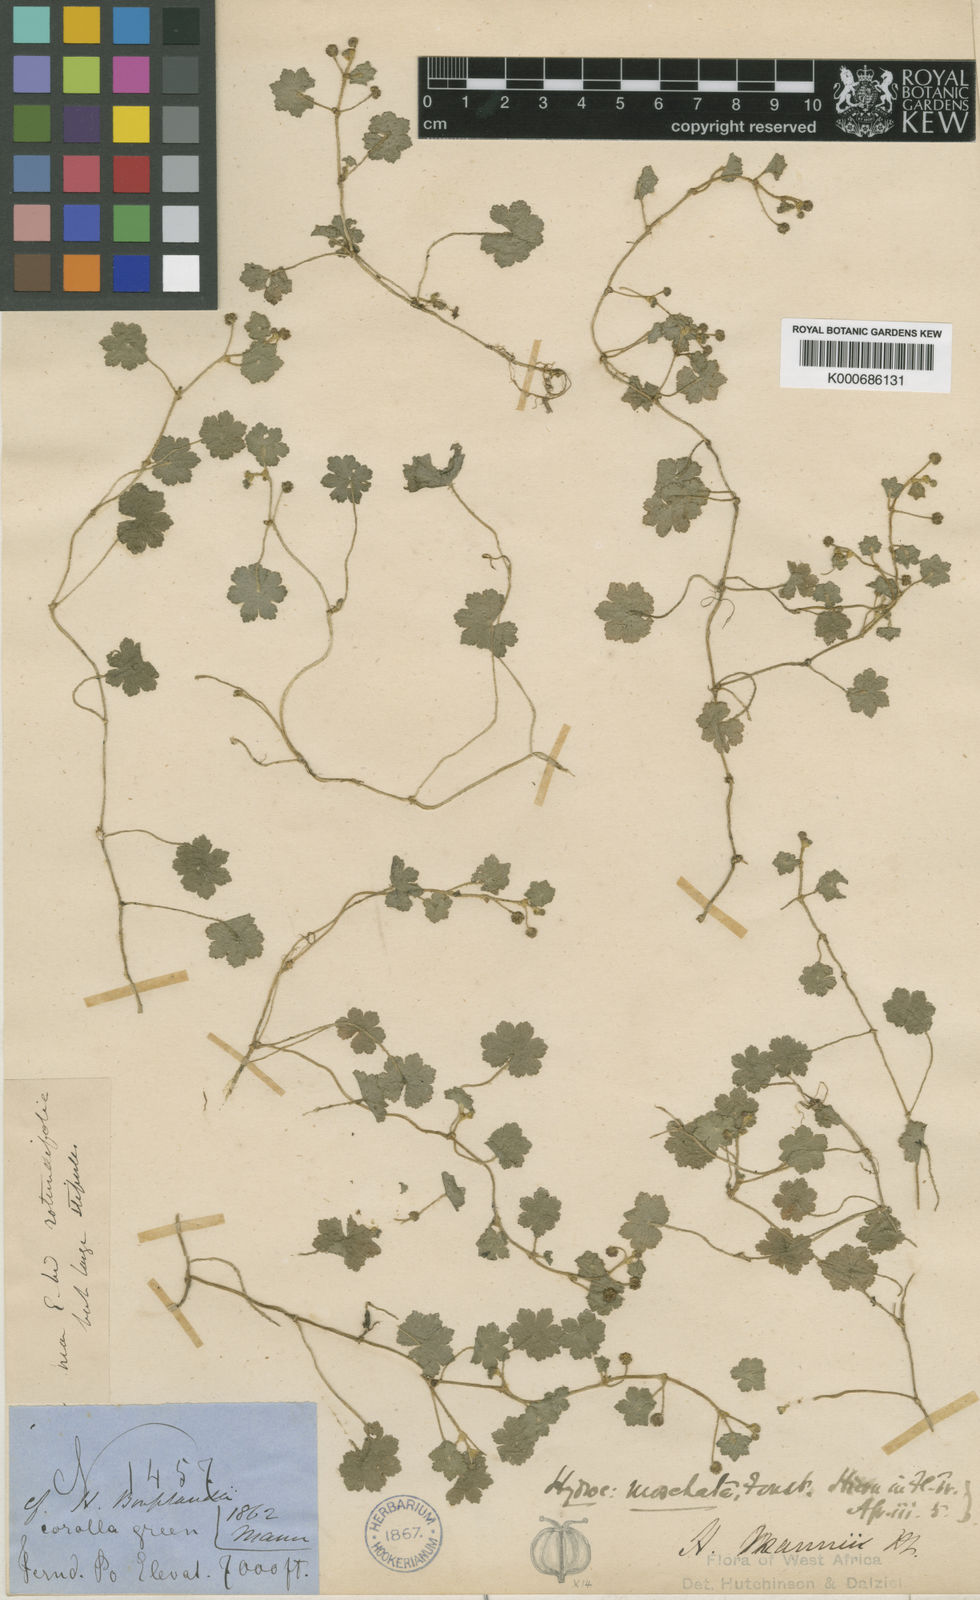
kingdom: Plantae
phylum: Tracheophyta
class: Magnoliopsida
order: Apiales
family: Araliaceae
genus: Hydrocotyle
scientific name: Hydrocotyle mannii
